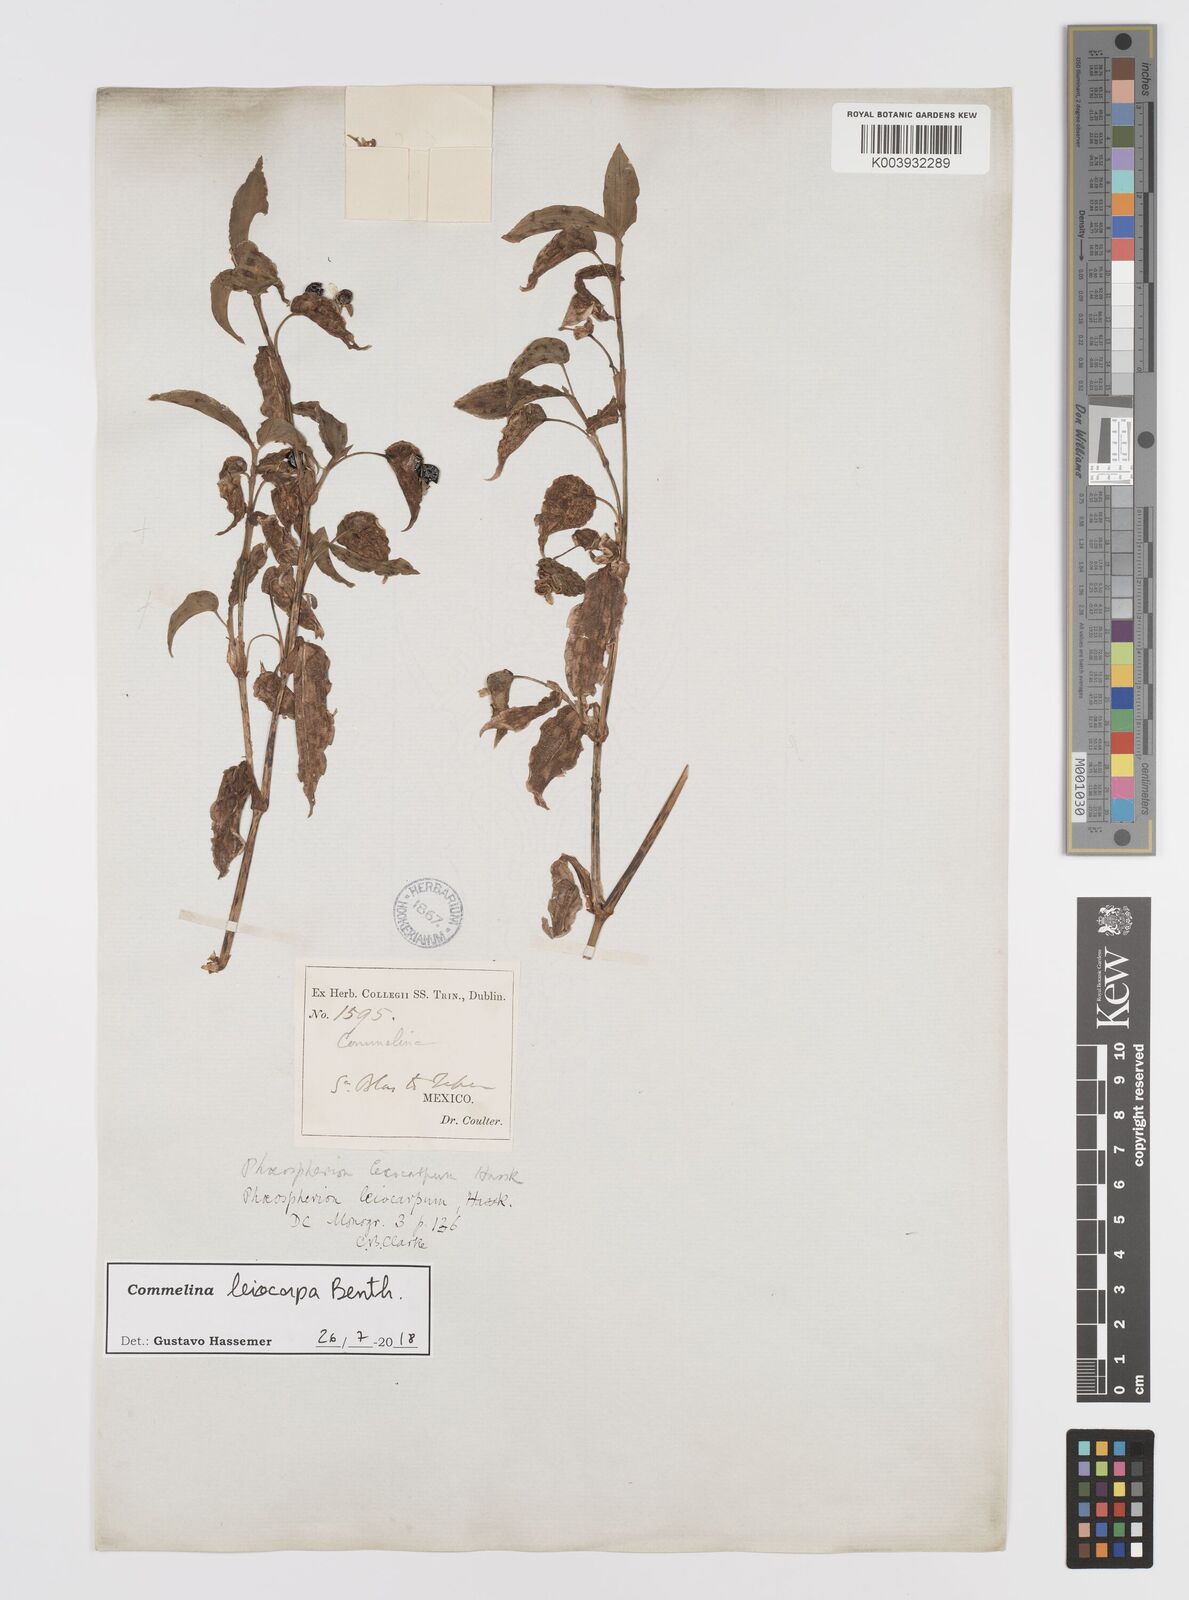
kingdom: Plantae
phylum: Tracheophyta
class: Liliopsida
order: Commelinales
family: Commelinaceae
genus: Commelina
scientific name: Commelina leiocarpa
